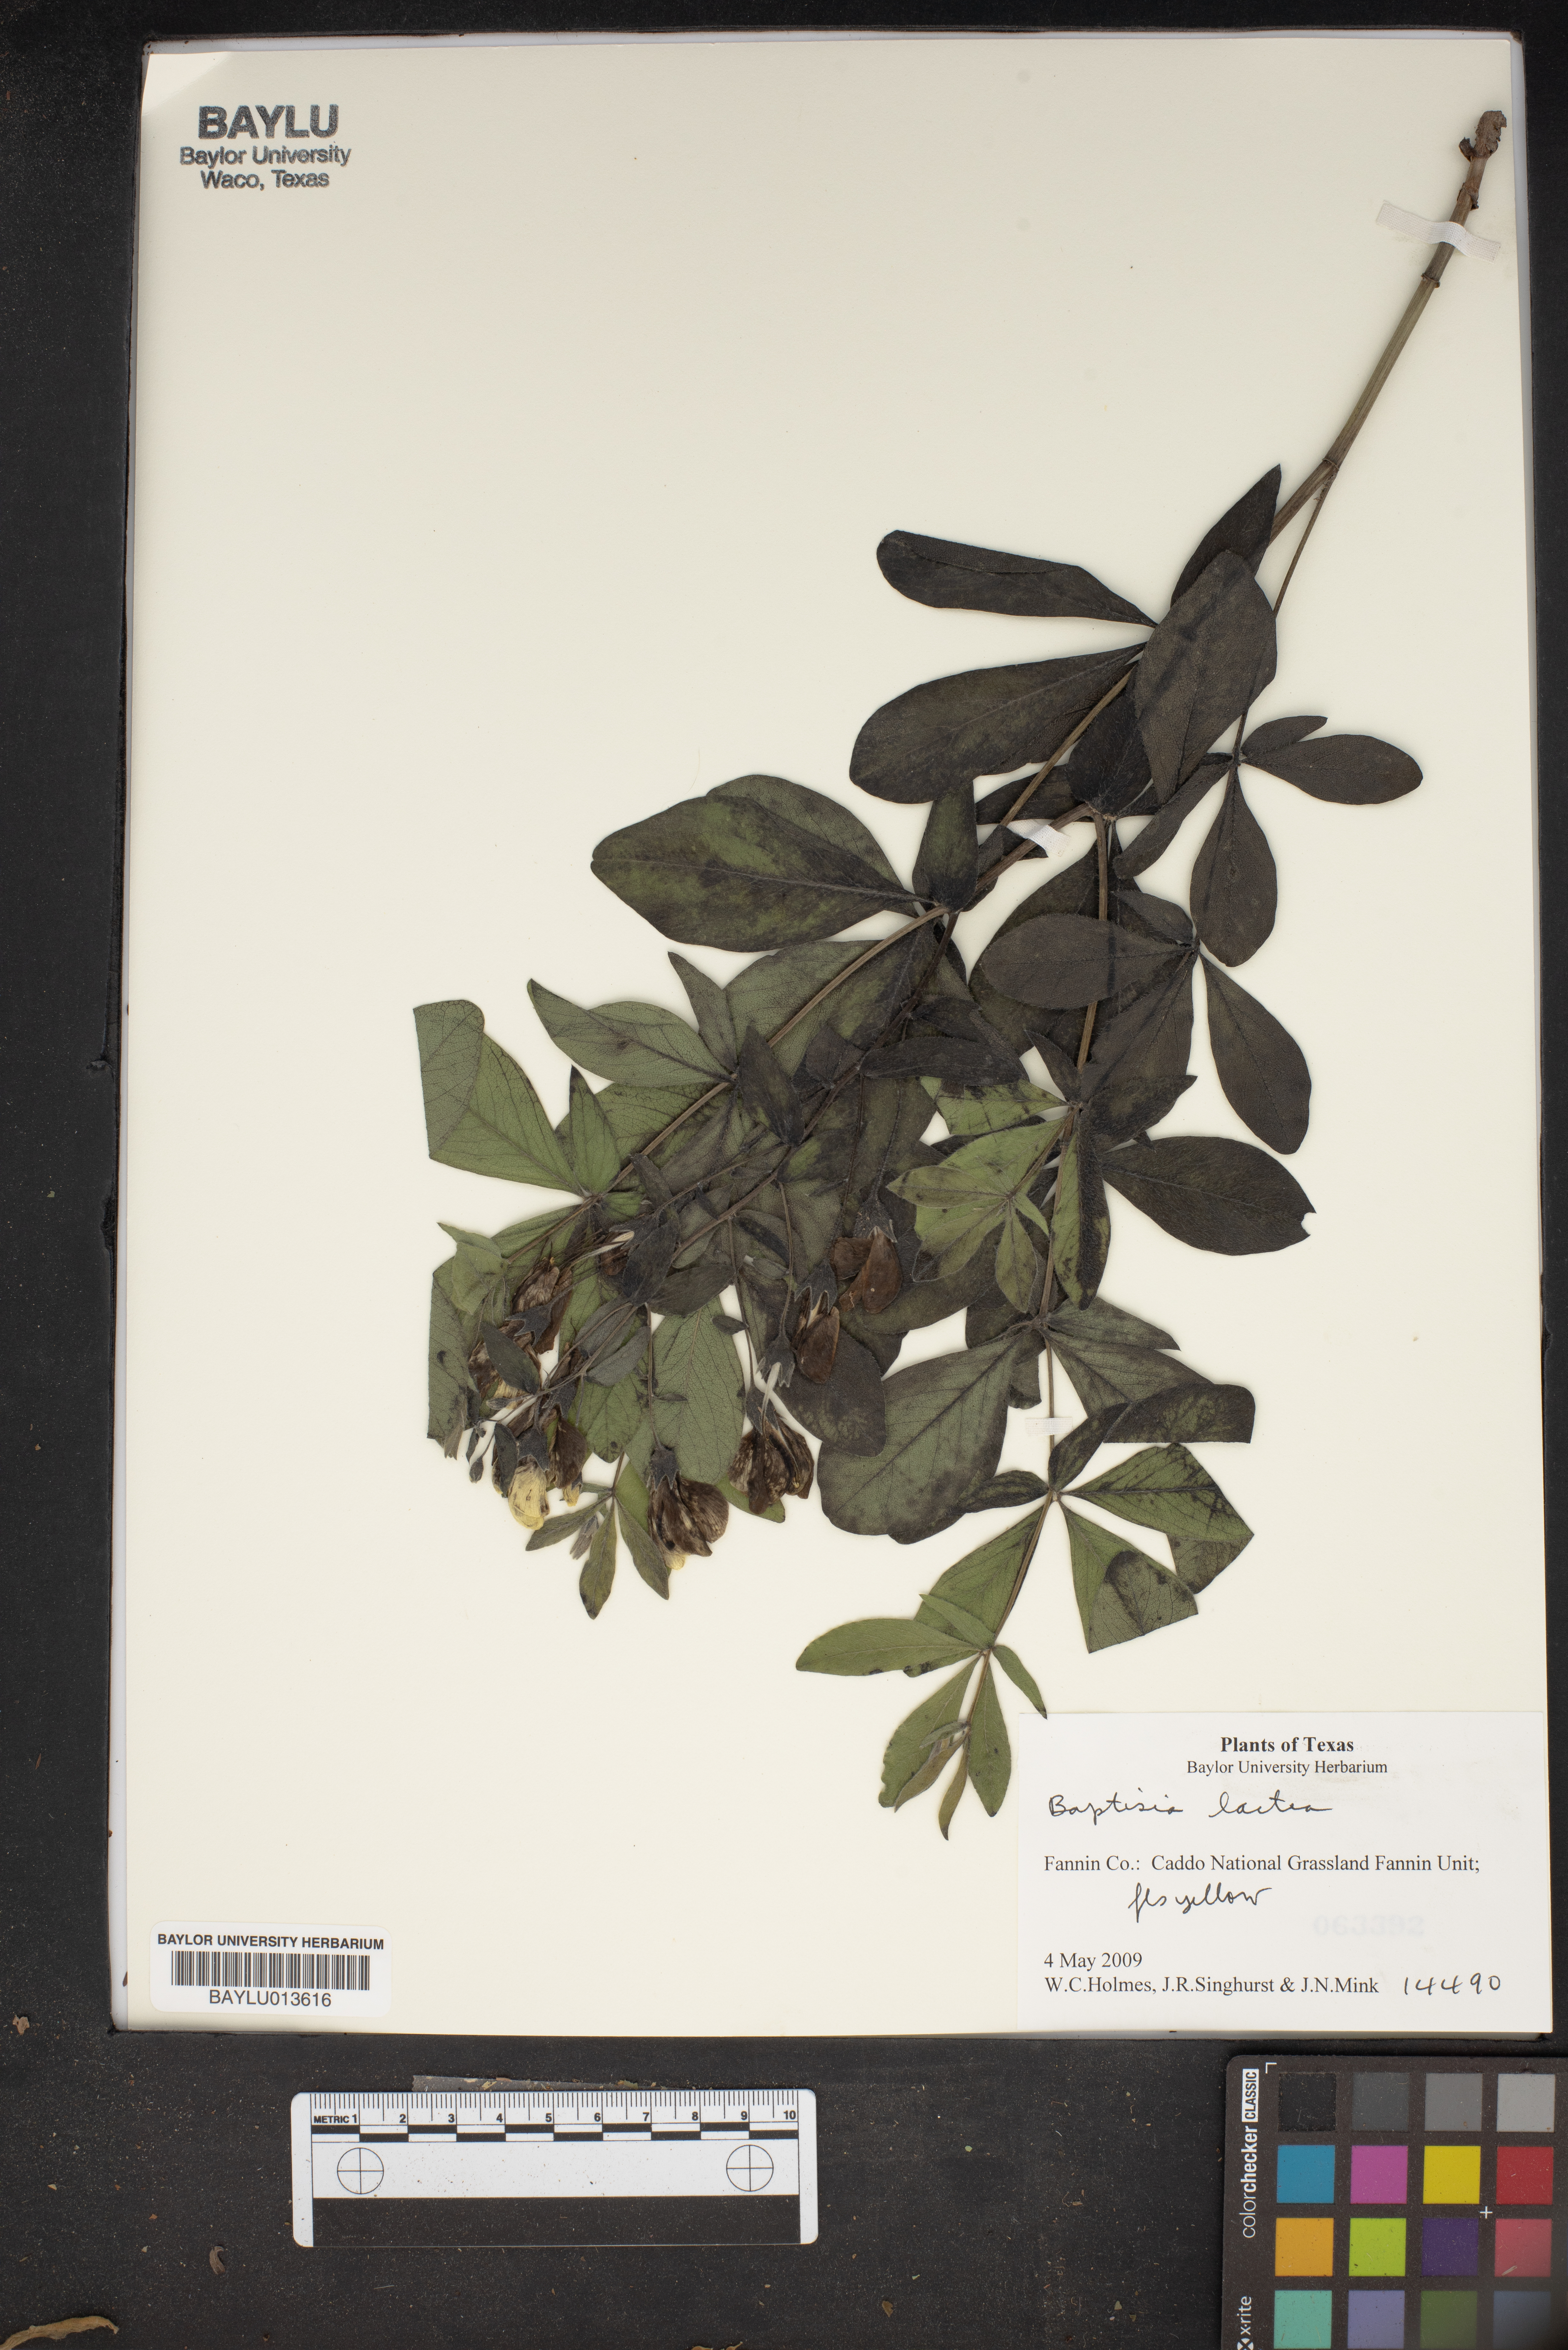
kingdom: Plantae
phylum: Tracheophyta
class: Magnoliopsida
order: Fabales
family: Fabaceae
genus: Baptisia
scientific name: Baptisia alba
